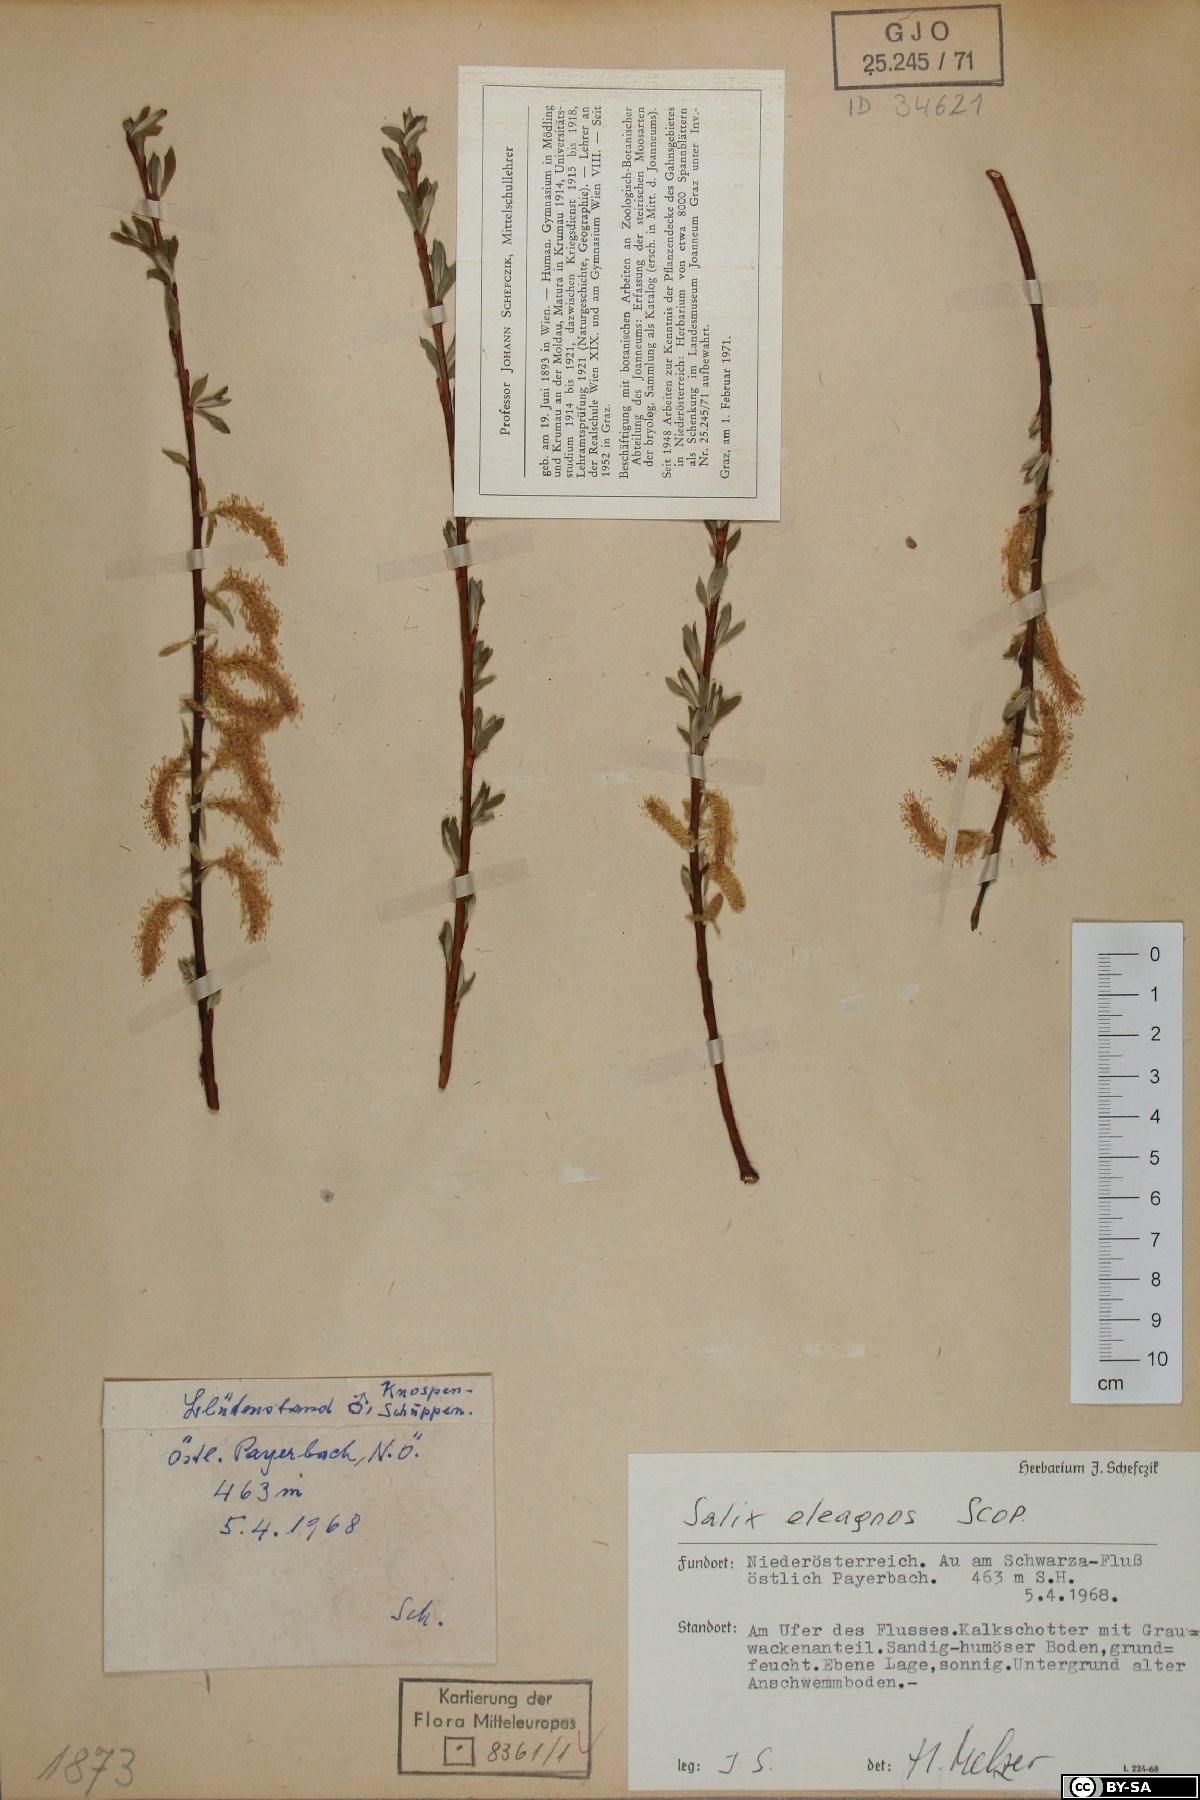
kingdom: Plantae
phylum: Tracheophyta
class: Magnoliopsida
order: Malpighiales
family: Salicaceae
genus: Salix
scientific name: Salix eleagnos
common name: Elaeagnus willow
